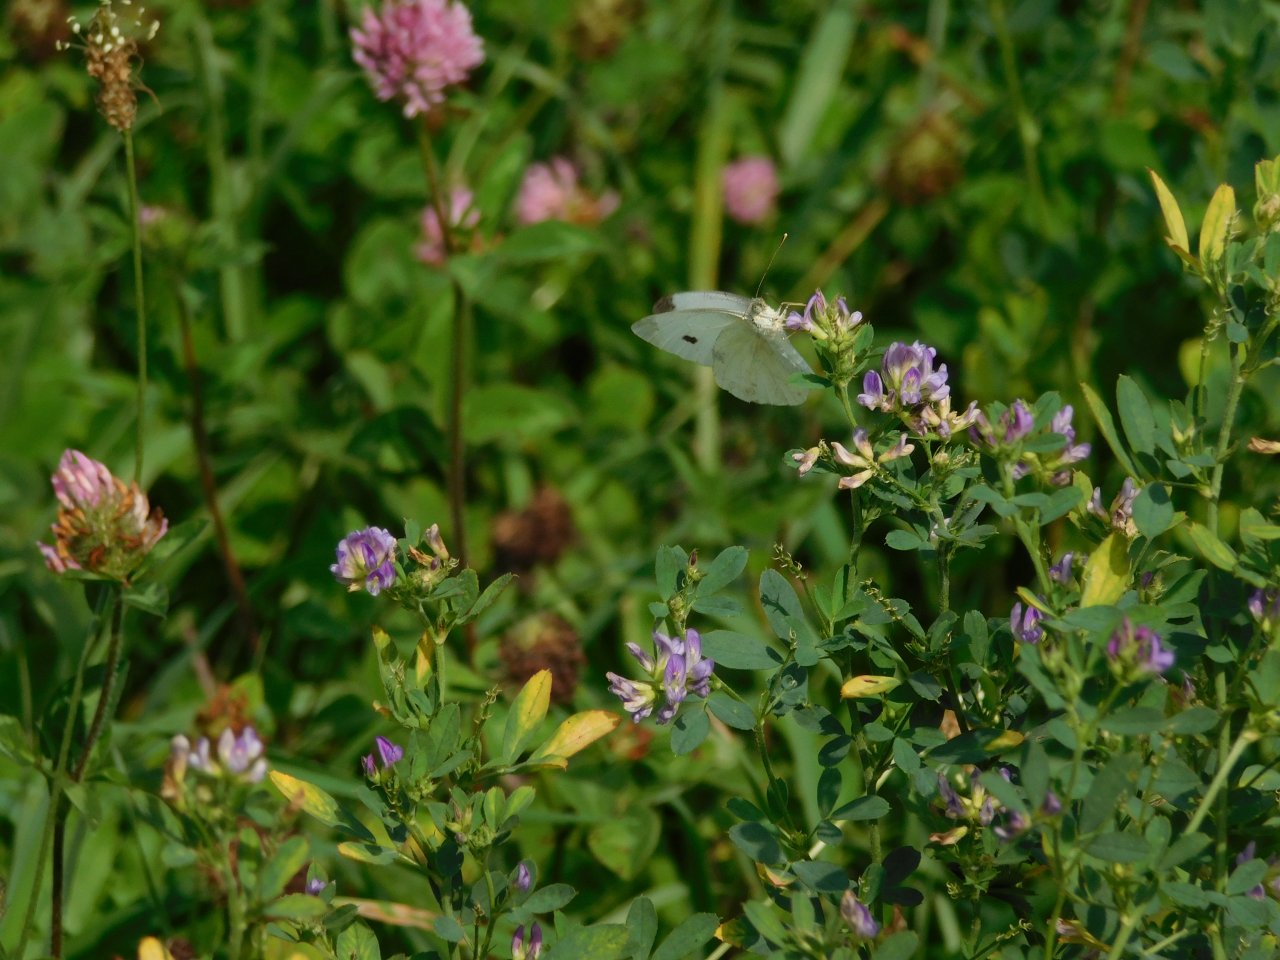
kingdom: Animalia
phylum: Arthropoda
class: Insecta
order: Lepidoptera
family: Pieridae
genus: Pieris
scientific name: Pieris rapae
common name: Cabbage White
